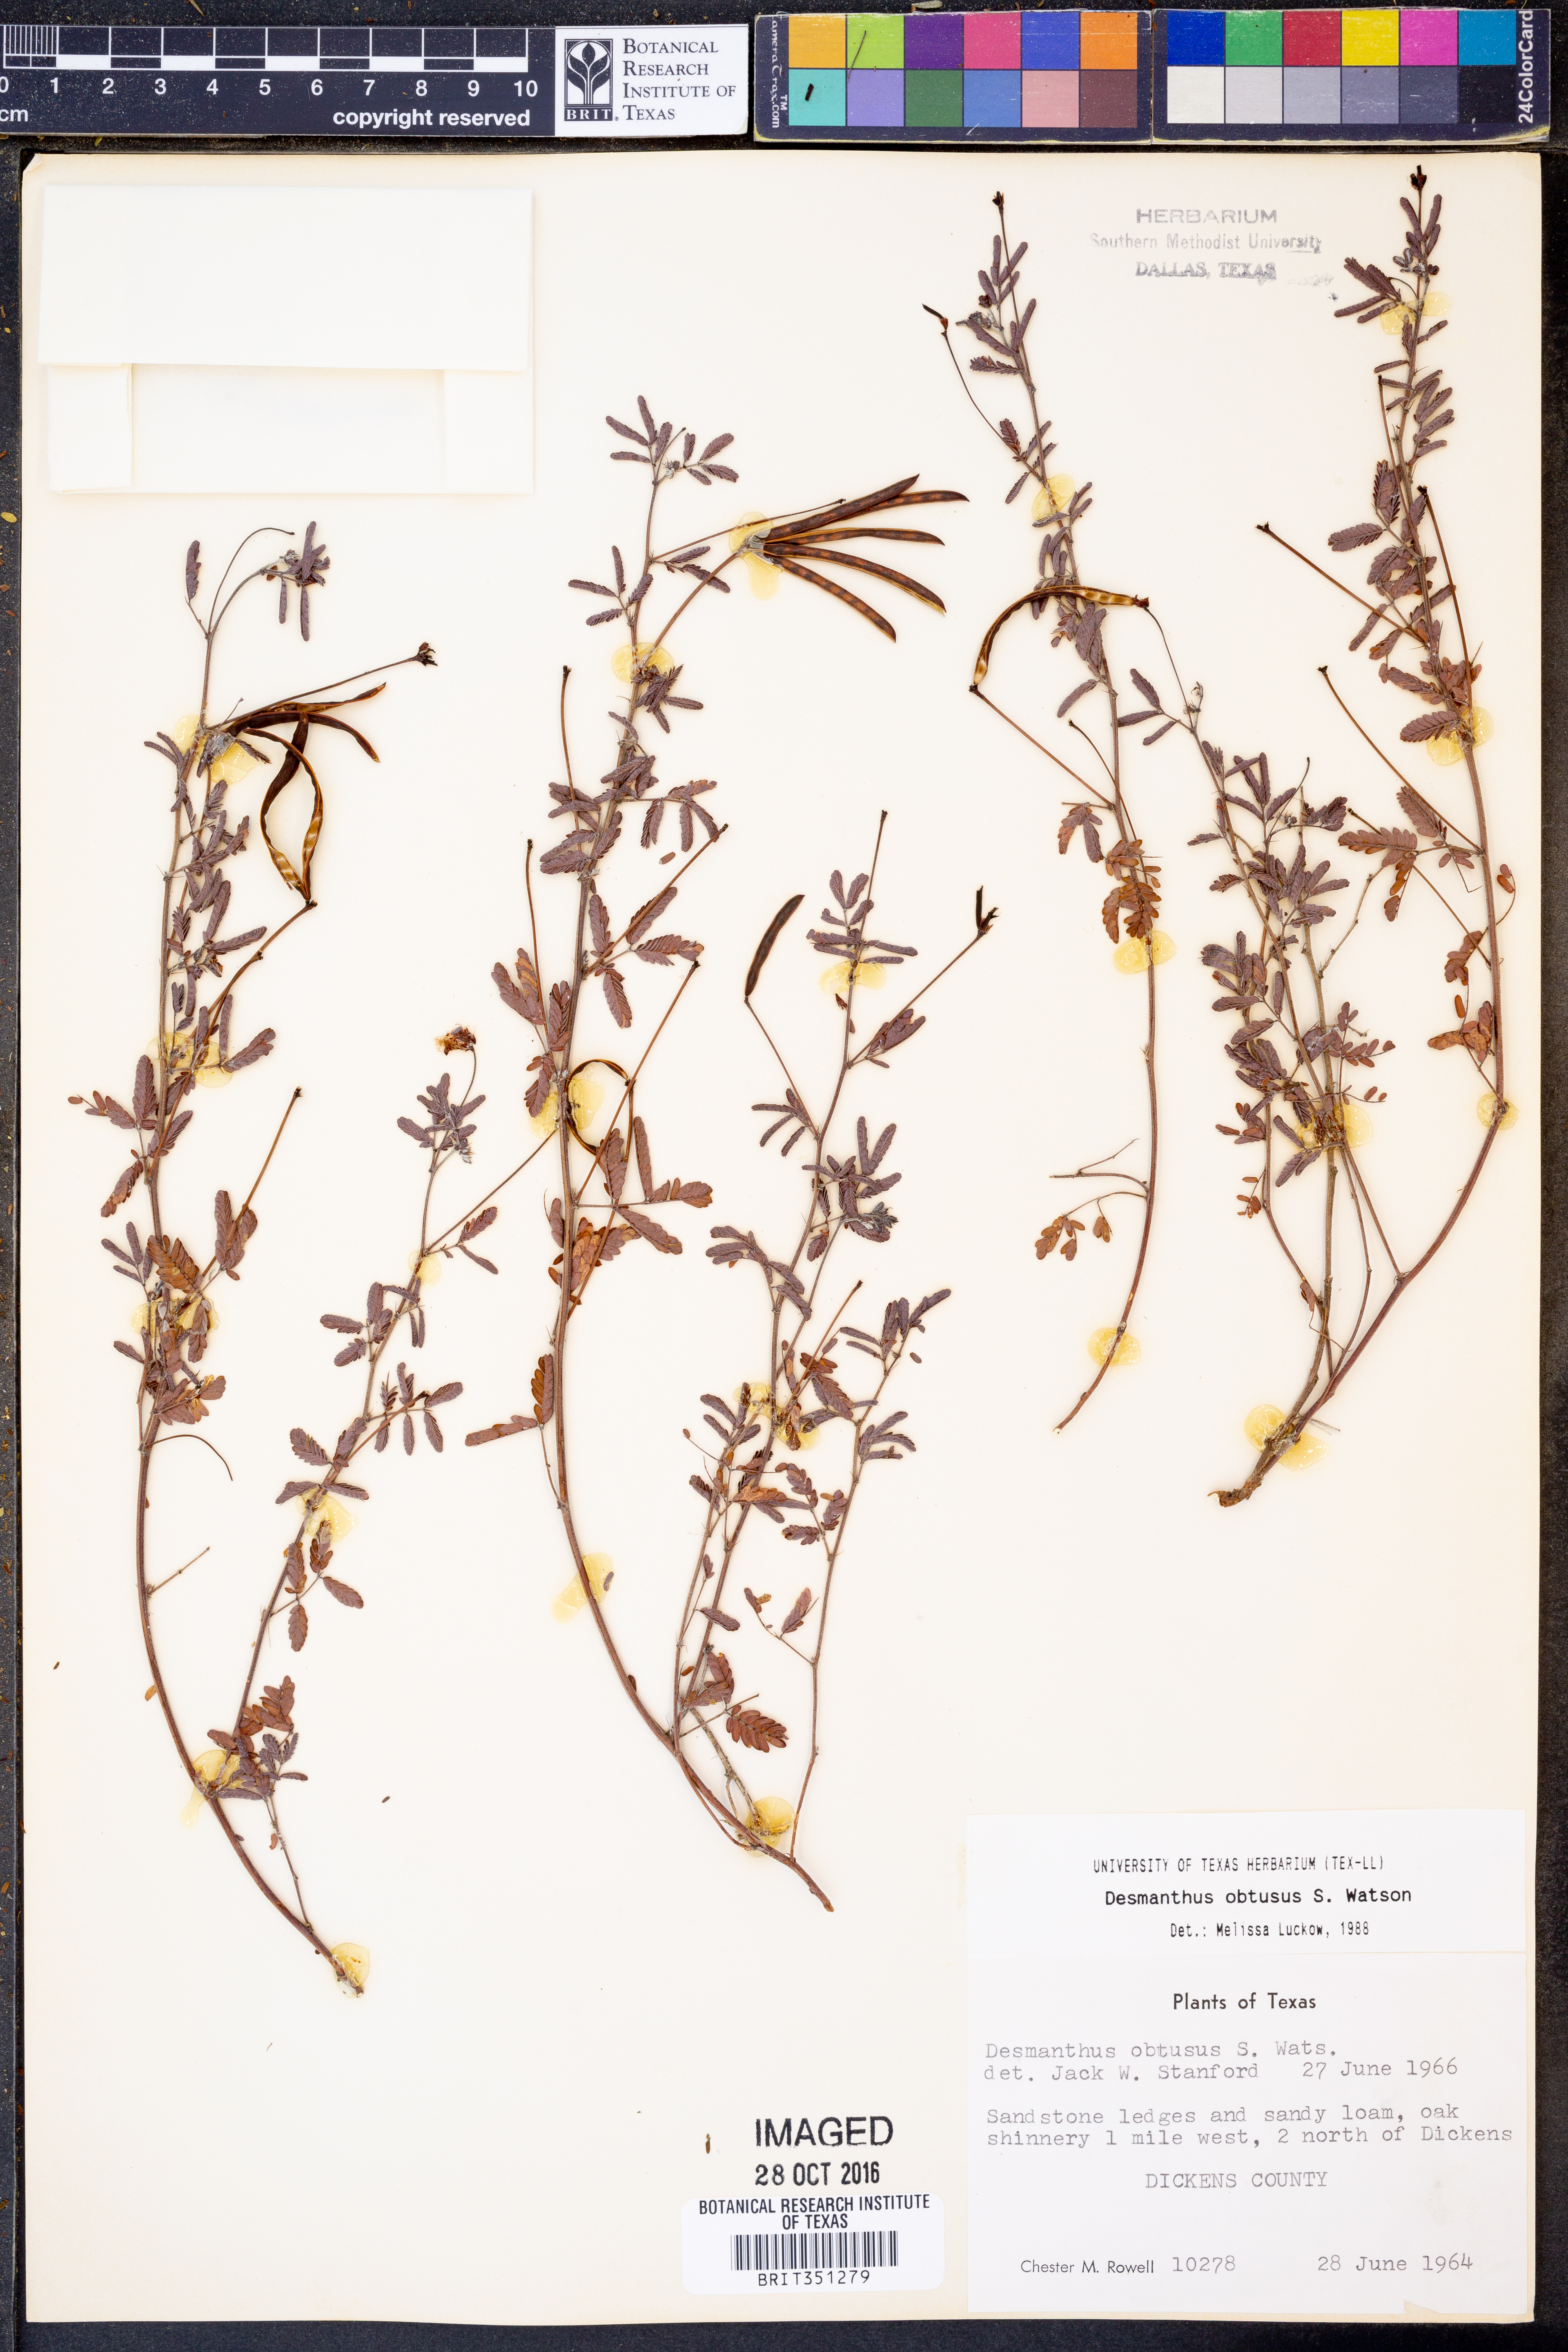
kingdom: Plantae
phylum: Tracheophyta
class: Magnoliopsida
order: Fabales
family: Fabaceae
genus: Desmanthus
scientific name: Desmanthus obtusus
